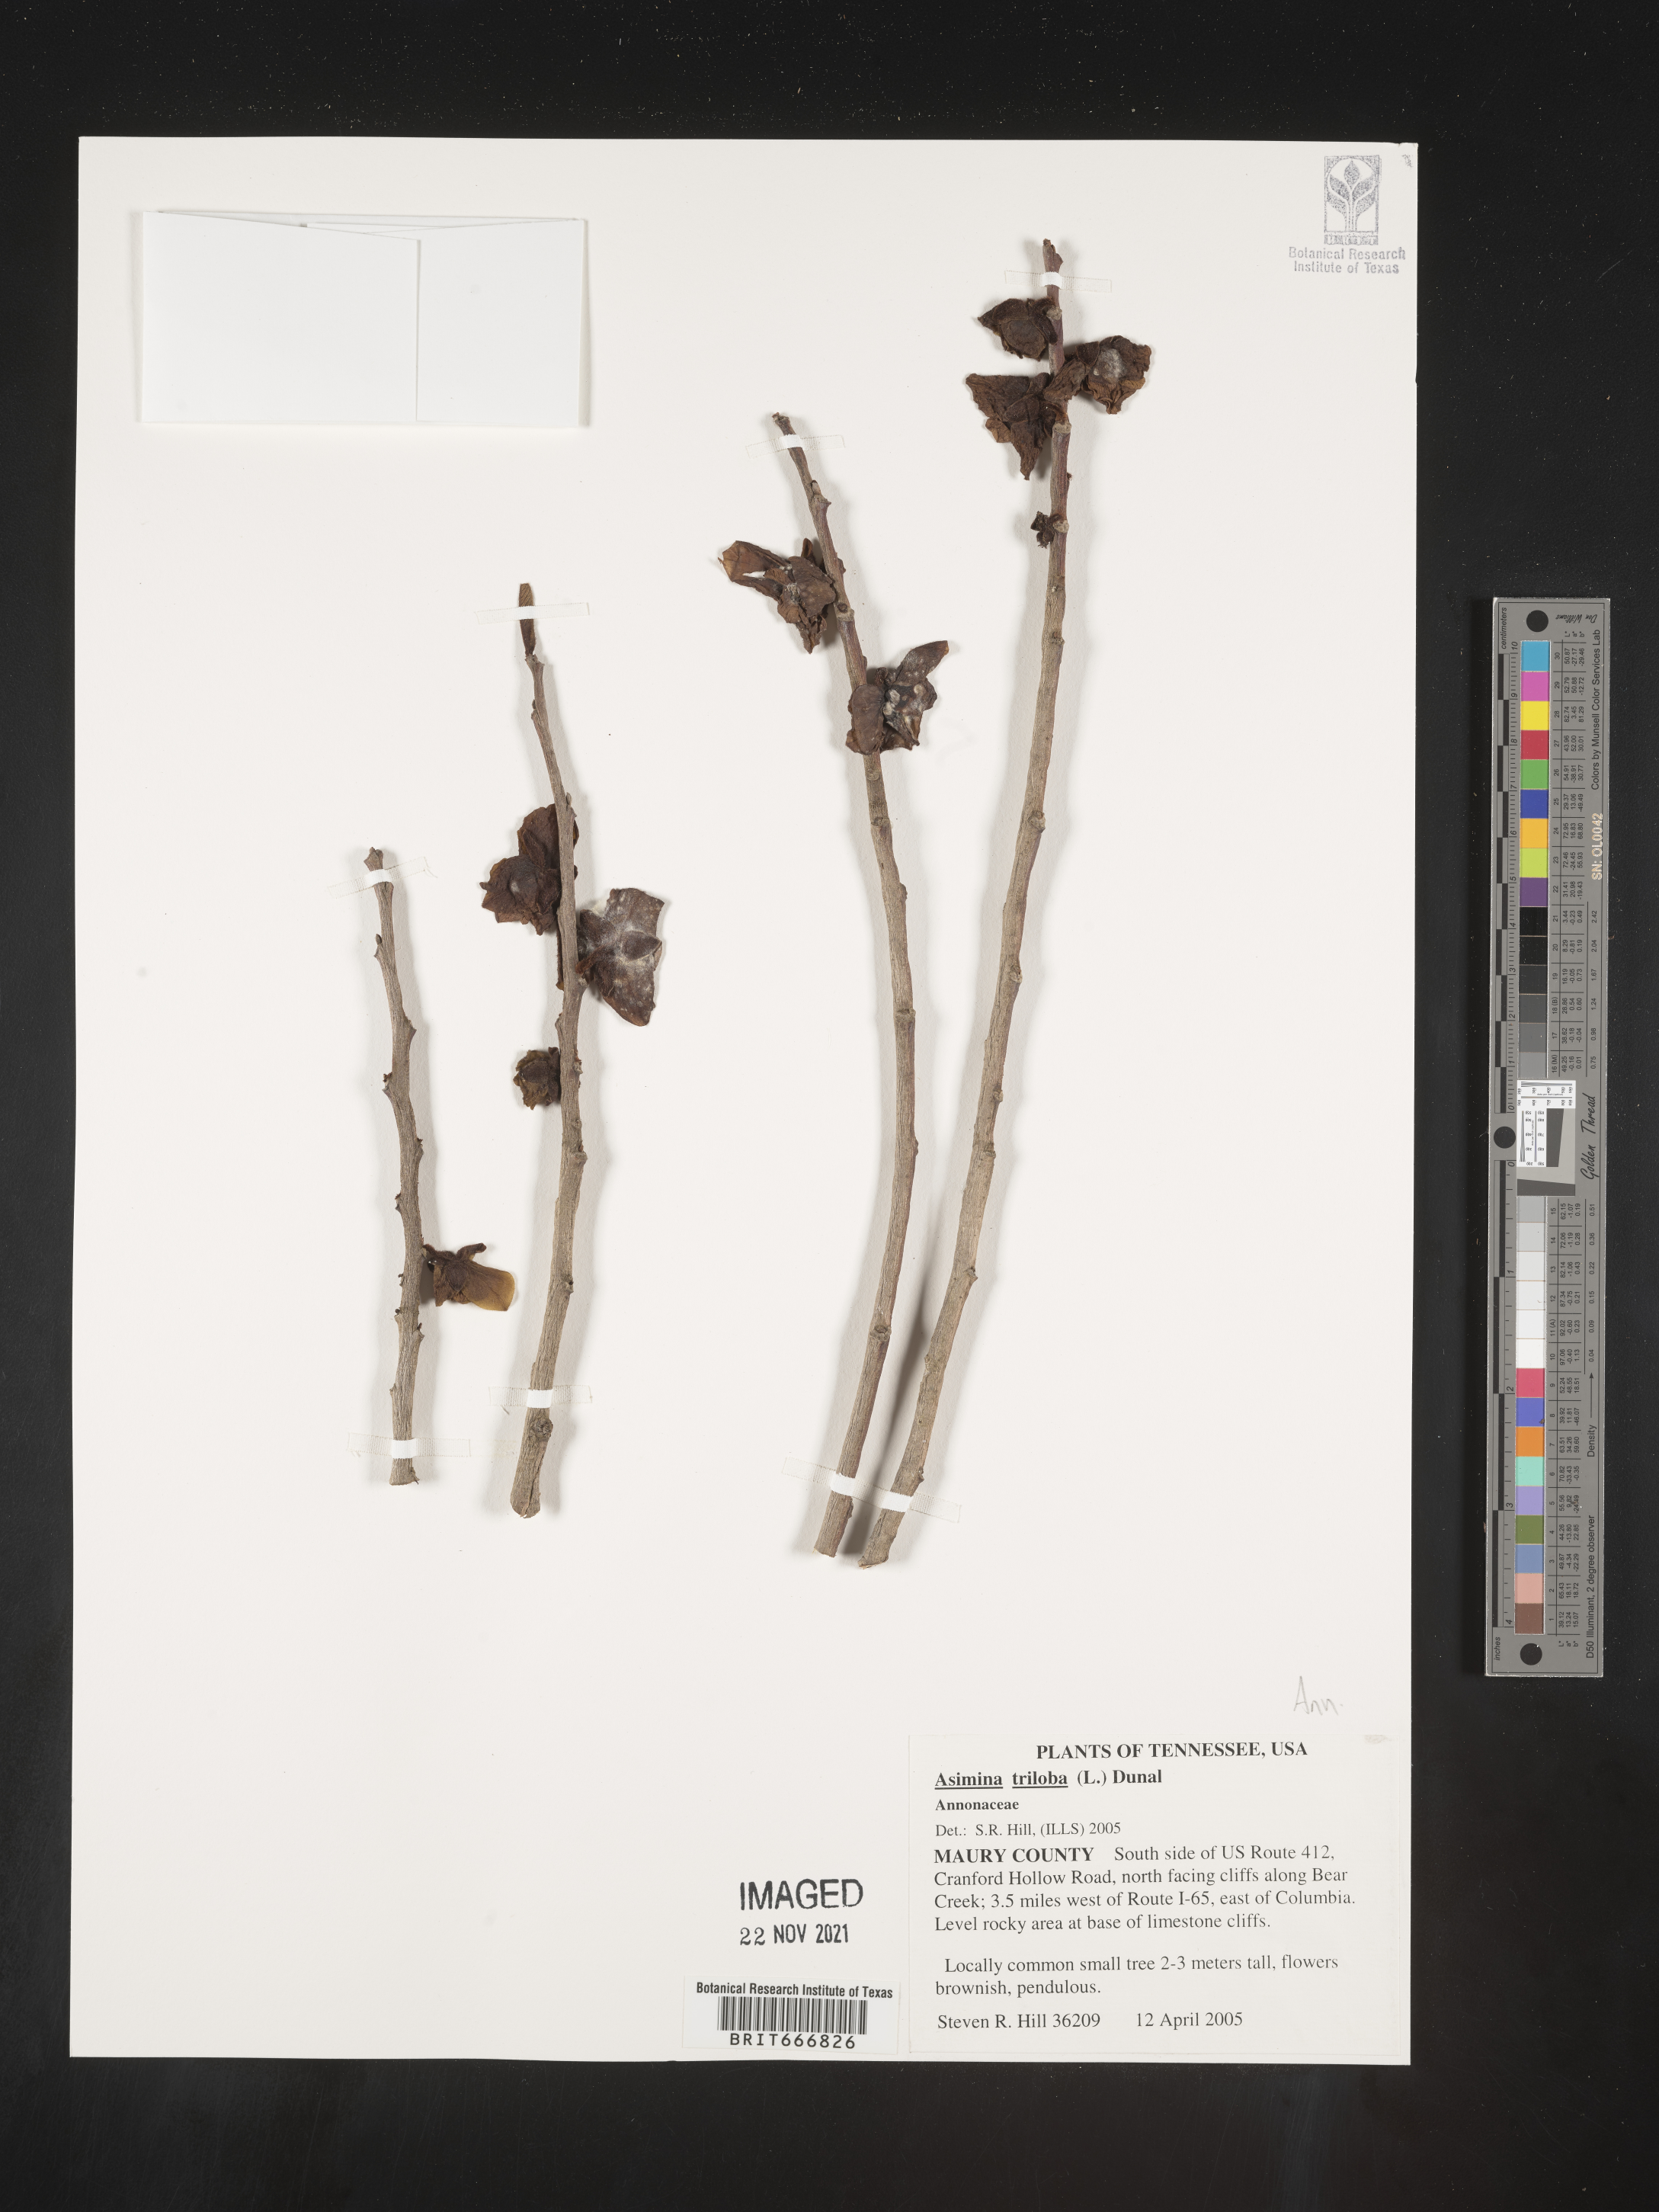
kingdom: Plantae
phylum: Tracheophyta
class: Magnoliopsida
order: Magnoliales
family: Annonaceae
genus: Asimina
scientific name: Asimina triloba
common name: Dog-banana
